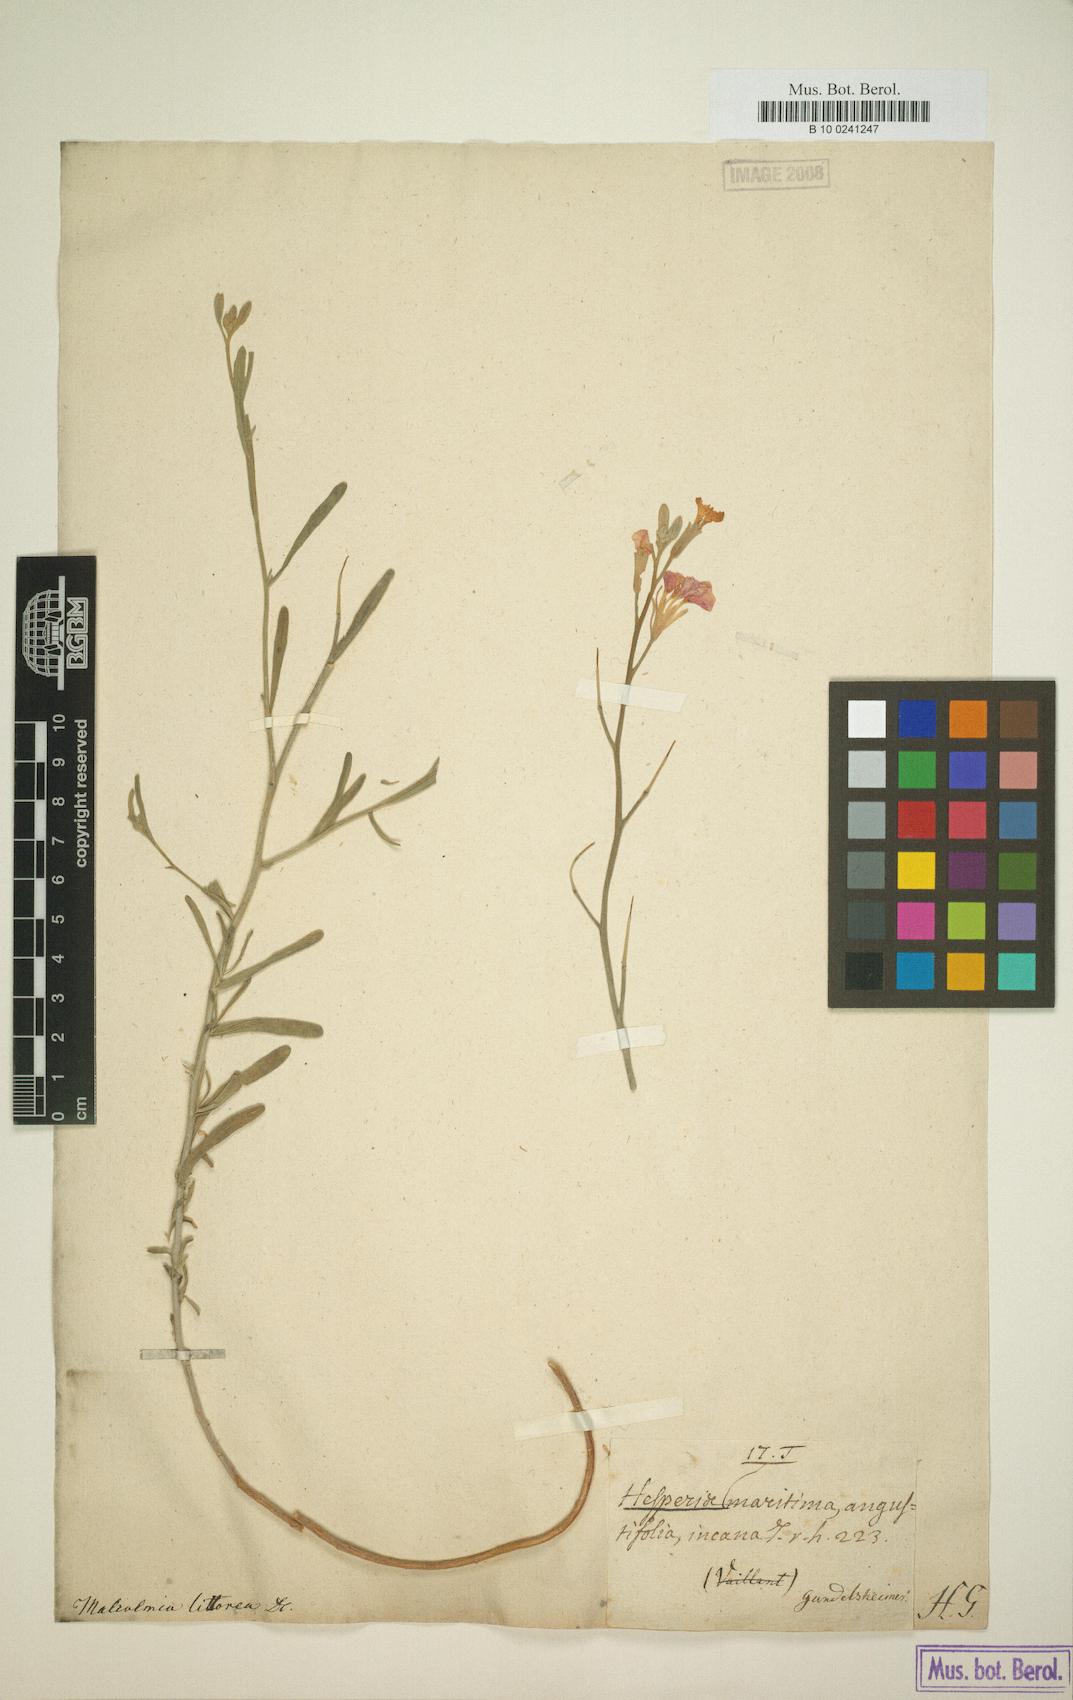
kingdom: Plantae
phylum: Tracheophyta
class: Magnoliopsida
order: Brassicales
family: Brassicaceae
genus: Marcuskochia
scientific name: Marcuskochia littorea
